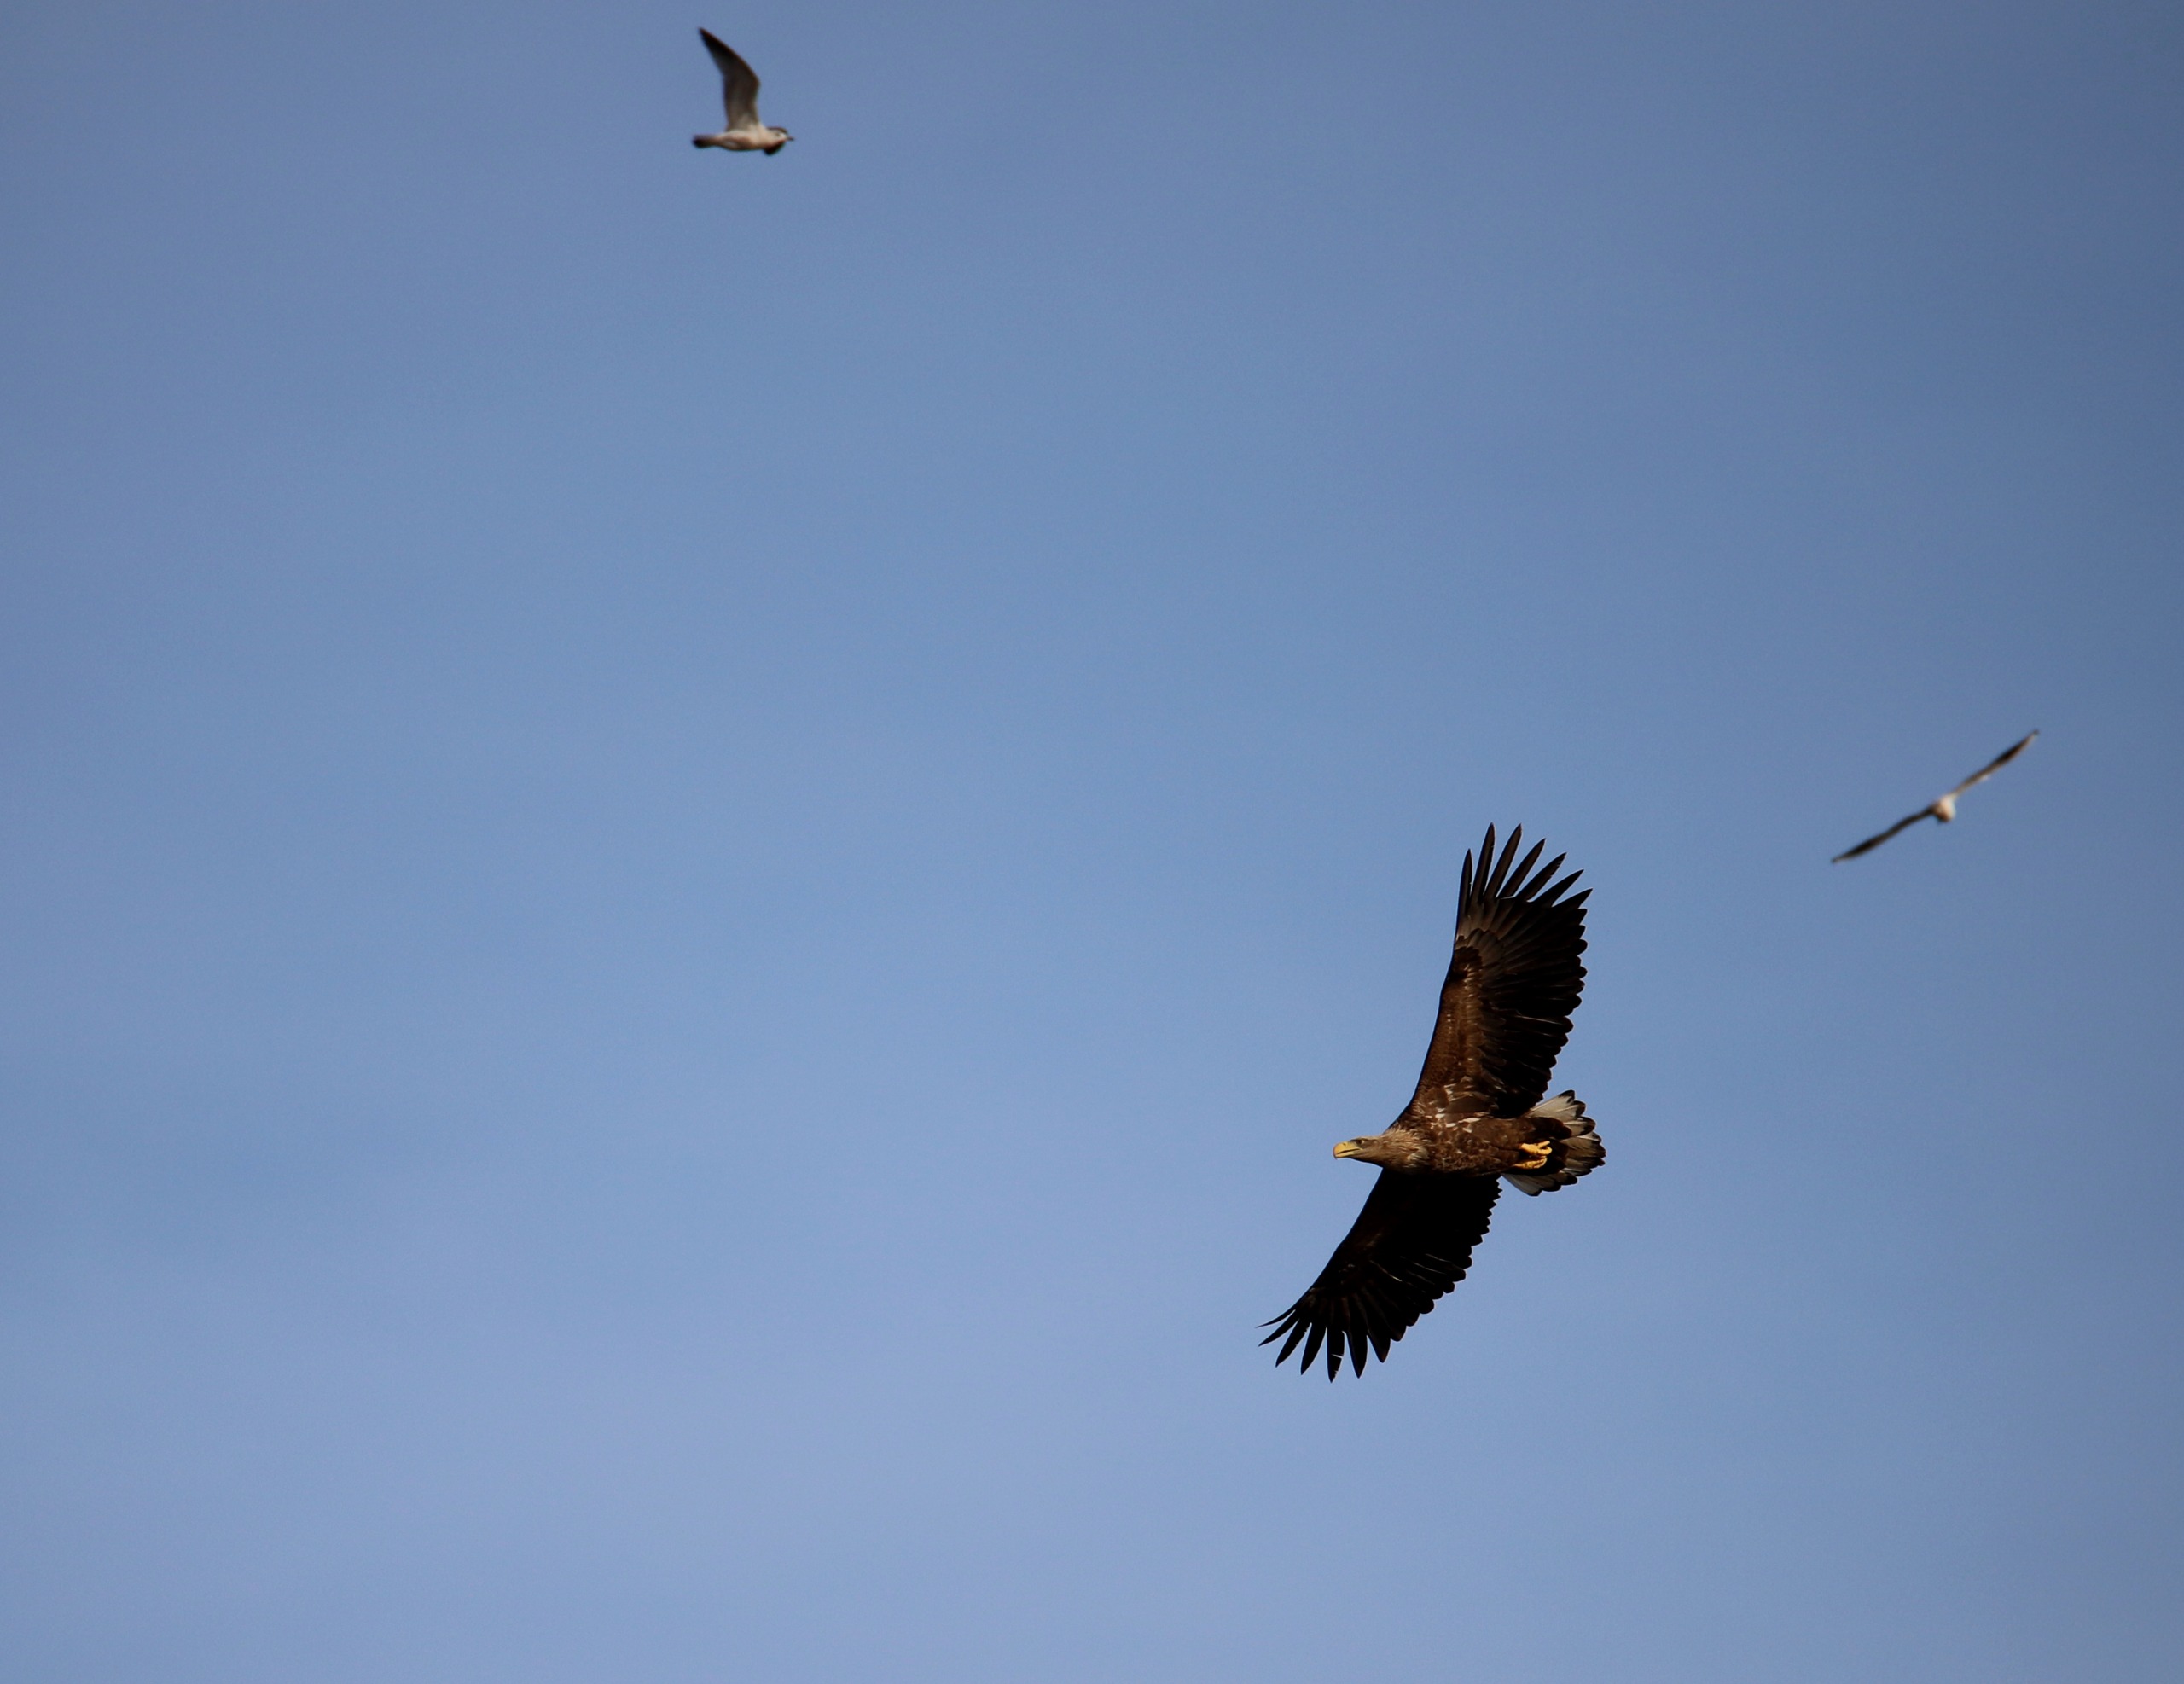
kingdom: Animalia
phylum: Chordata
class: Aves
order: Accipitriformes
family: Accipitridae
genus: Haliaeetus
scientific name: Haliaeetus albicilla
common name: Havørn
